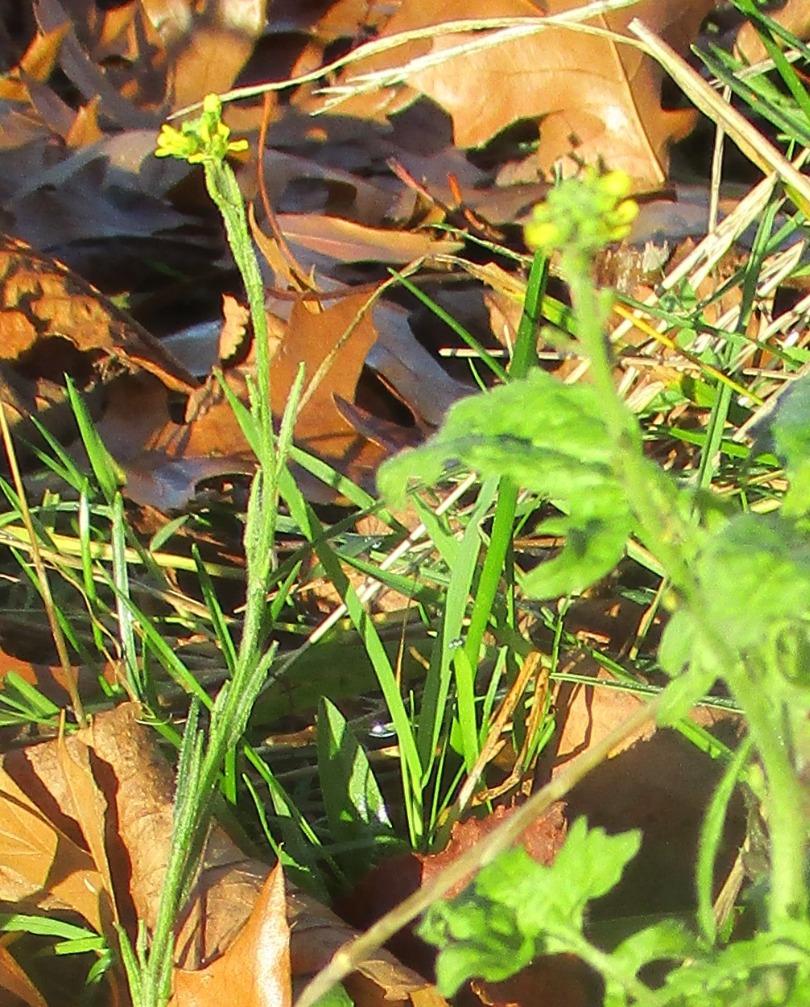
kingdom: Plantae
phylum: Tracheophyta
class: Magnoliopsida
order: Brassicales
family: Brassicaceae
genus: Sisymbrium
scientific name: Sisymbrium officinale
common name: Rank vejsennep
